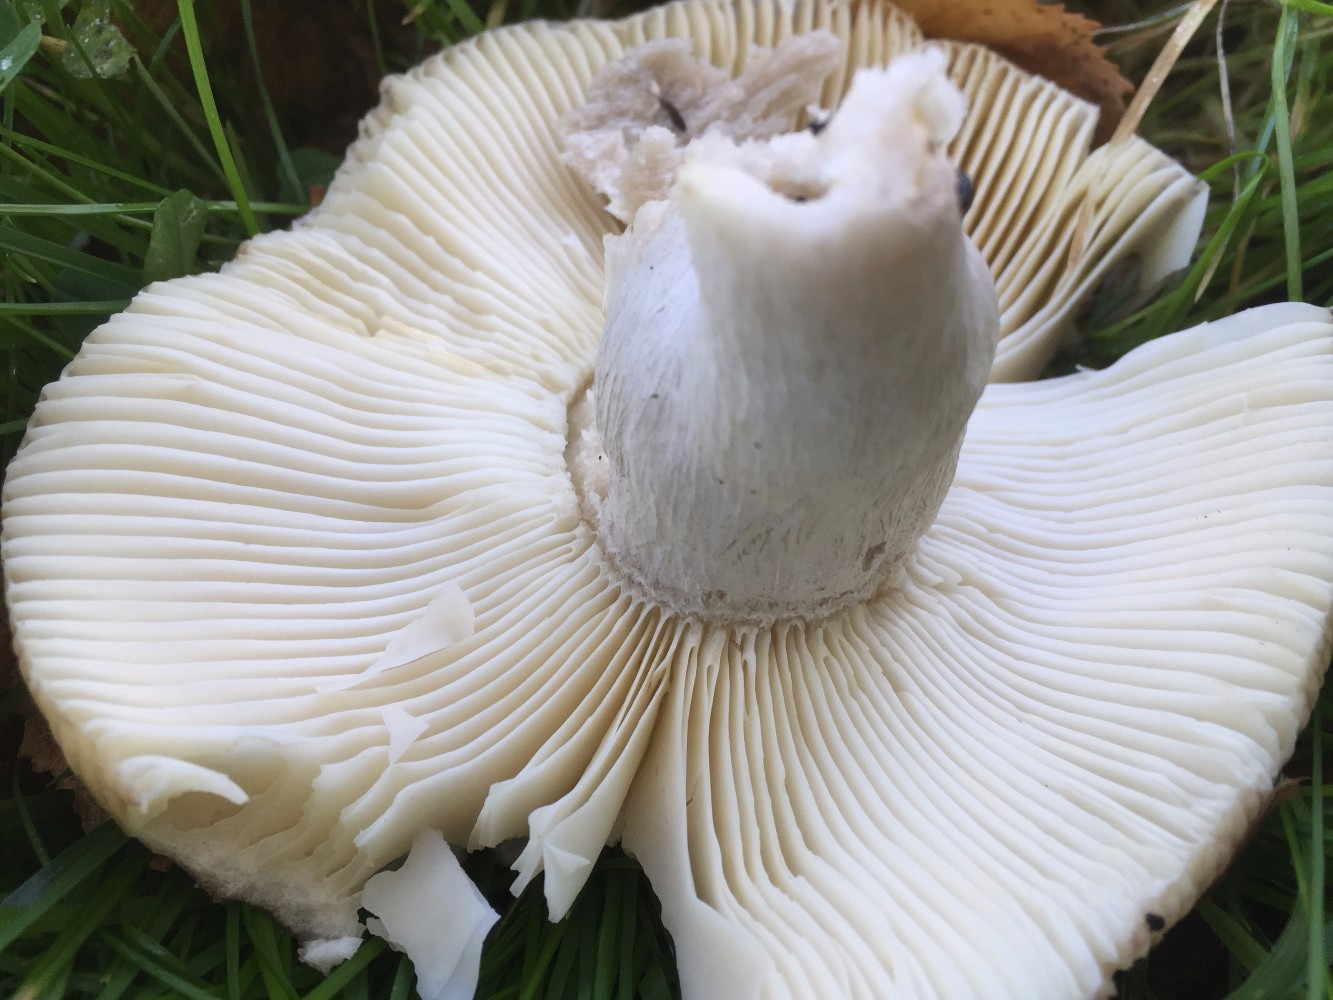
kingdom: Fungi
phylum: Basidiomycota
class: Agaricomycetes
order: Russulales
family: Russulaceae
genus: Russula
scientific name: Russula depallens
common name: falmende skørhat
